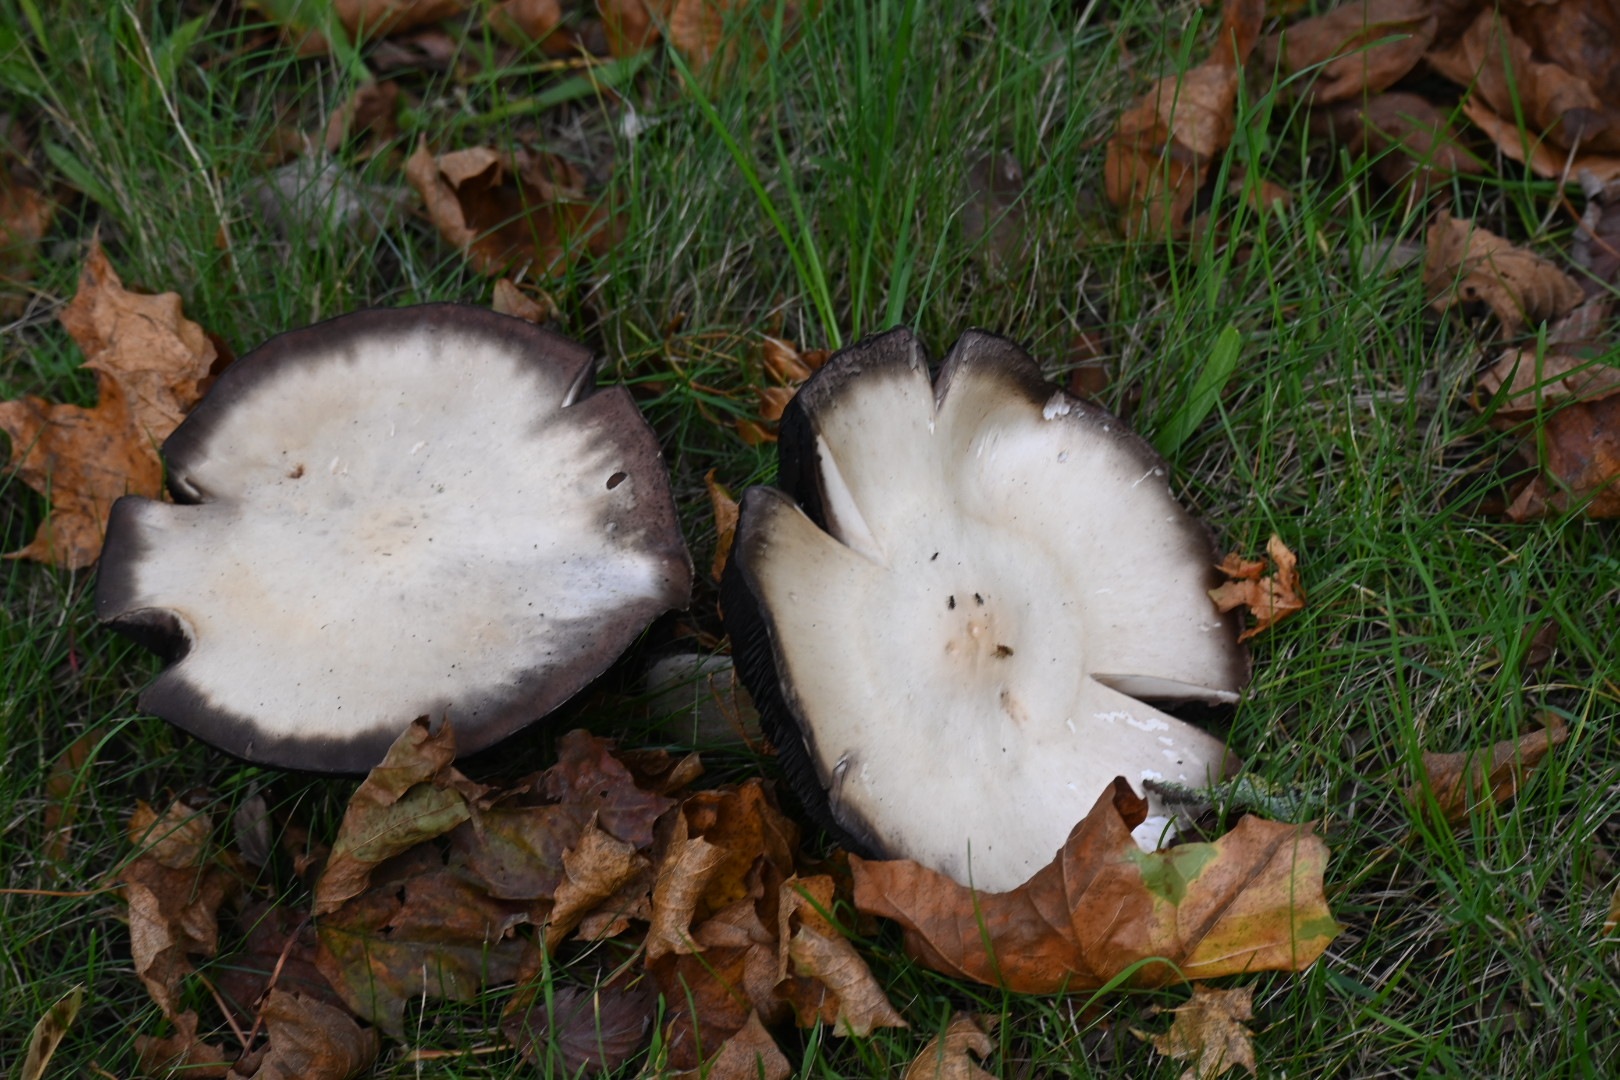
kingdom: Fungi
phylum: Basidiomycota
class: Agaricomycetes
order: Agaricales
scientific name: Agaricales
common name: champignonordenen
